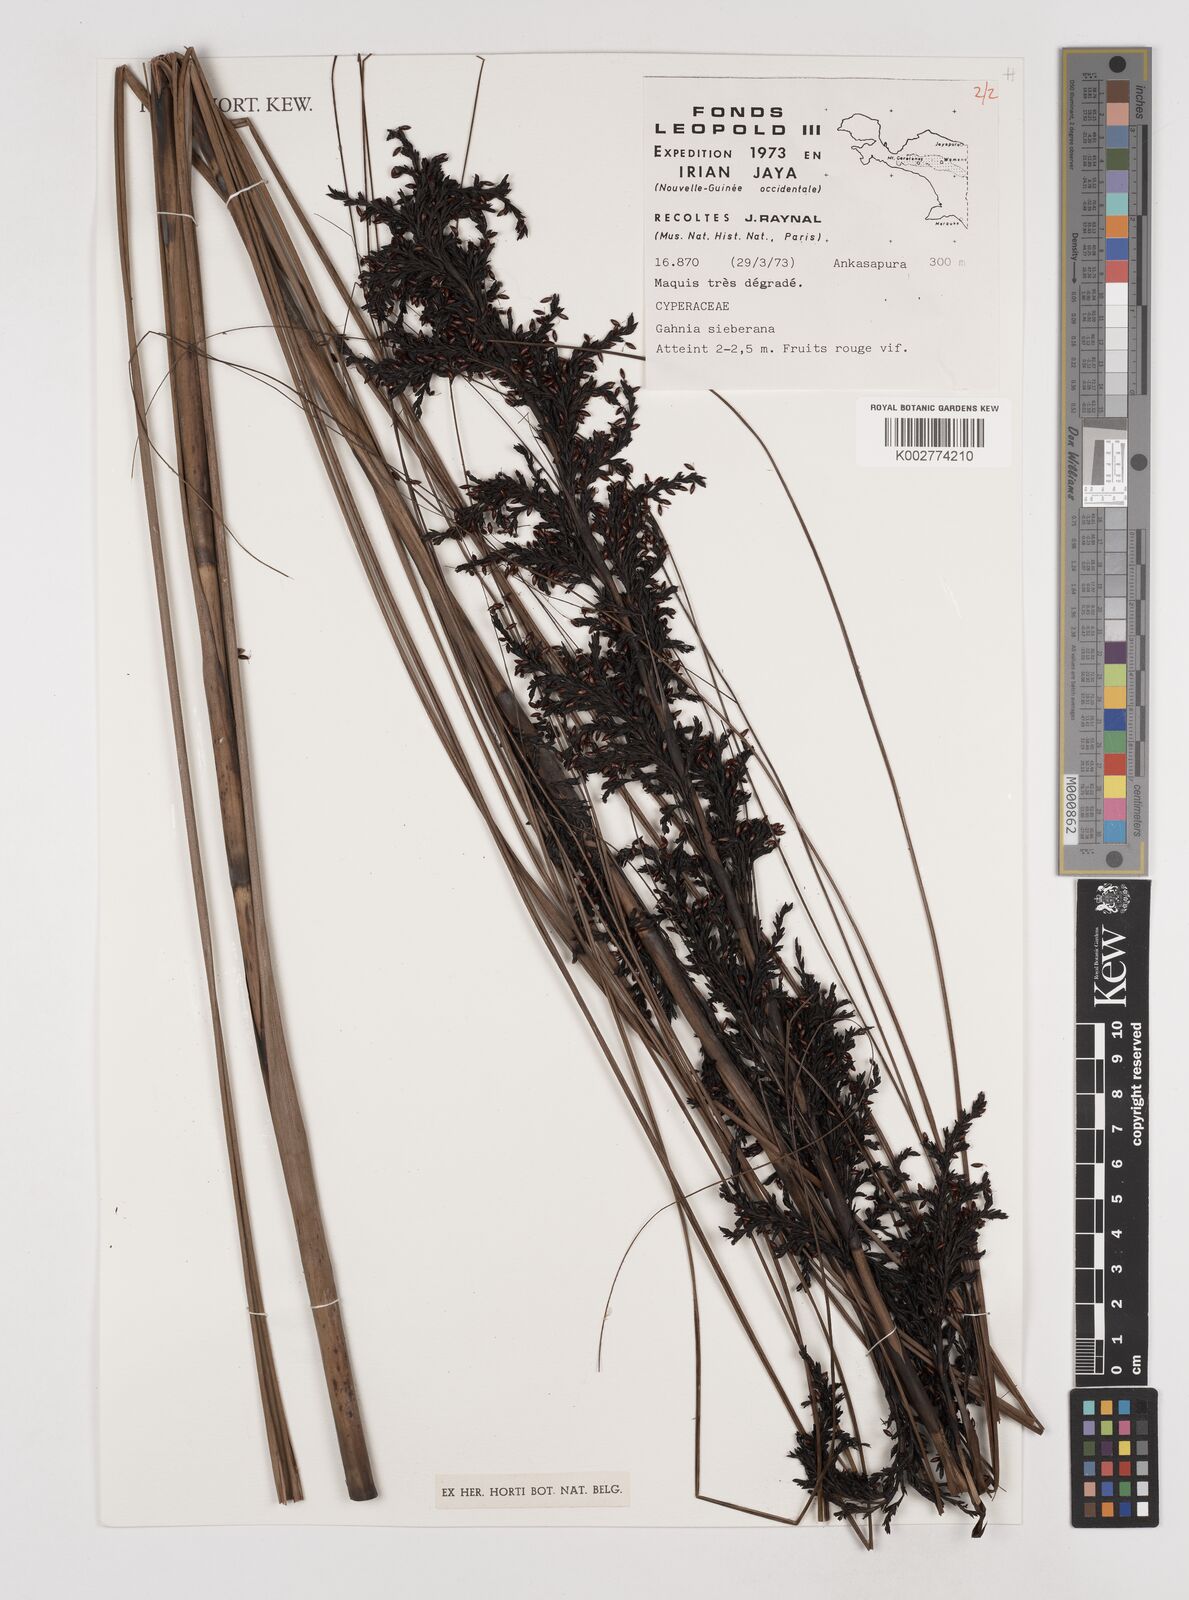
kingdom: Plantae
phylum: Tracheophyta
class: Liliopsida
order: Poales
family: Cyperaceae
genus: Gahnia
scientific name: Gahnia sieberiana
